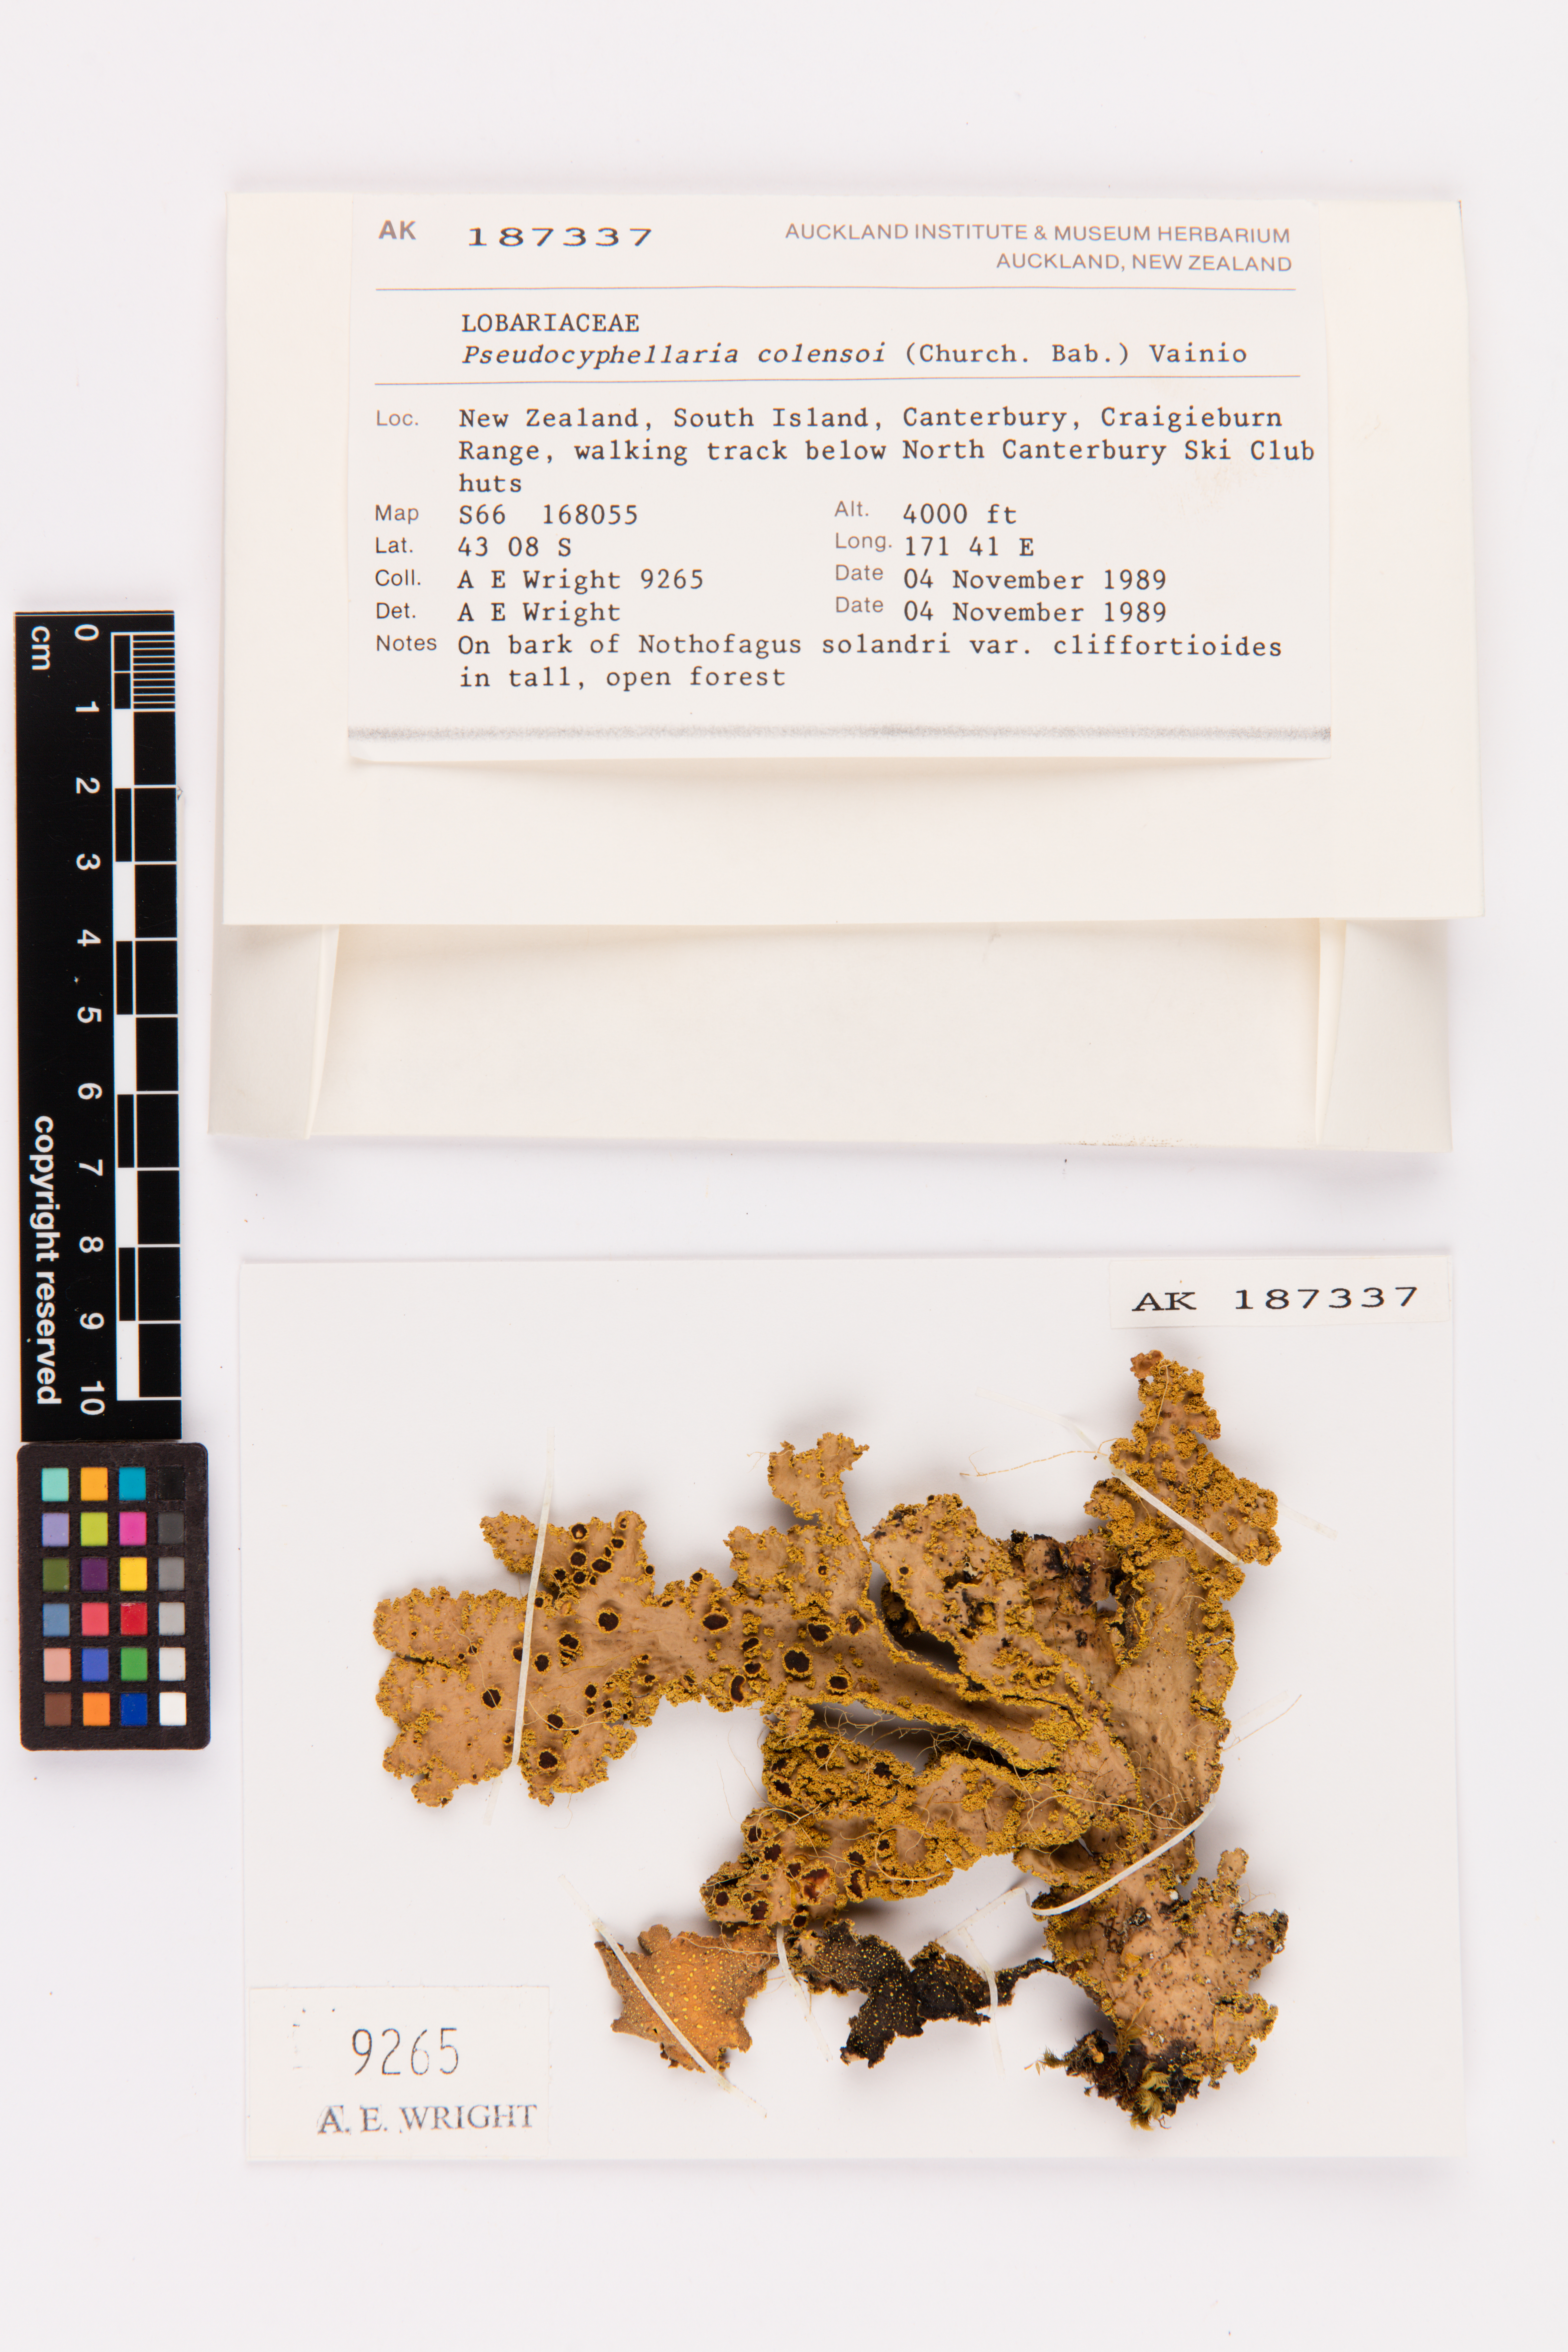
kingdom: Fungi
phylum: Ascomycota
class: Lecanoromycetes
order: Peltigerales
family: Lobariaceae
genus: Yarrumia
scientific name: Yarrumia colensoi
